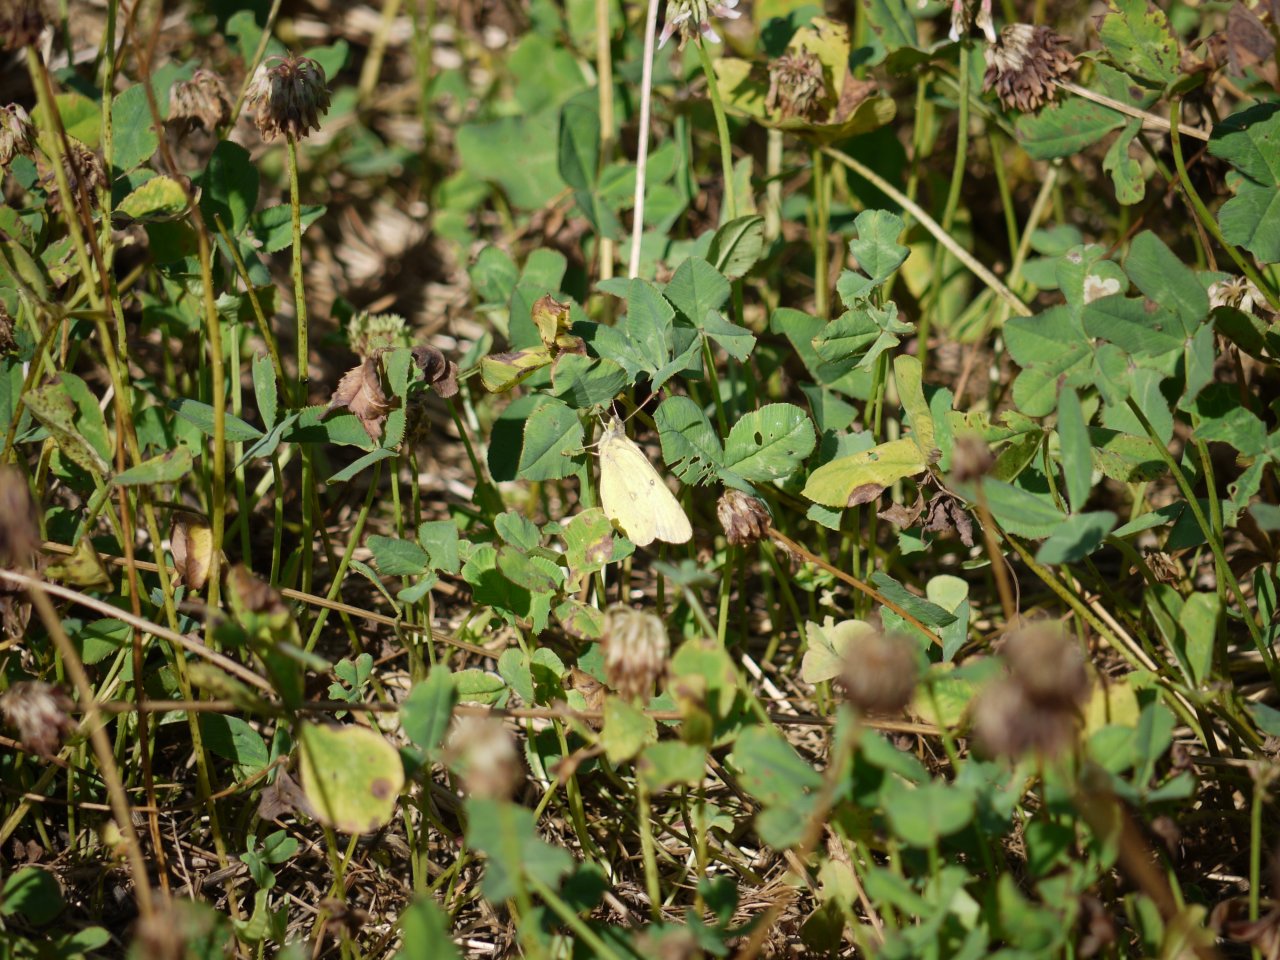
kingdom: Animalia
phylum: Arthropoda
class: Insecta
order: Lepidoptera
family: Pieridae
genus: Colias
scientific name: Colias philodice
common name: Clouded Sulphur
